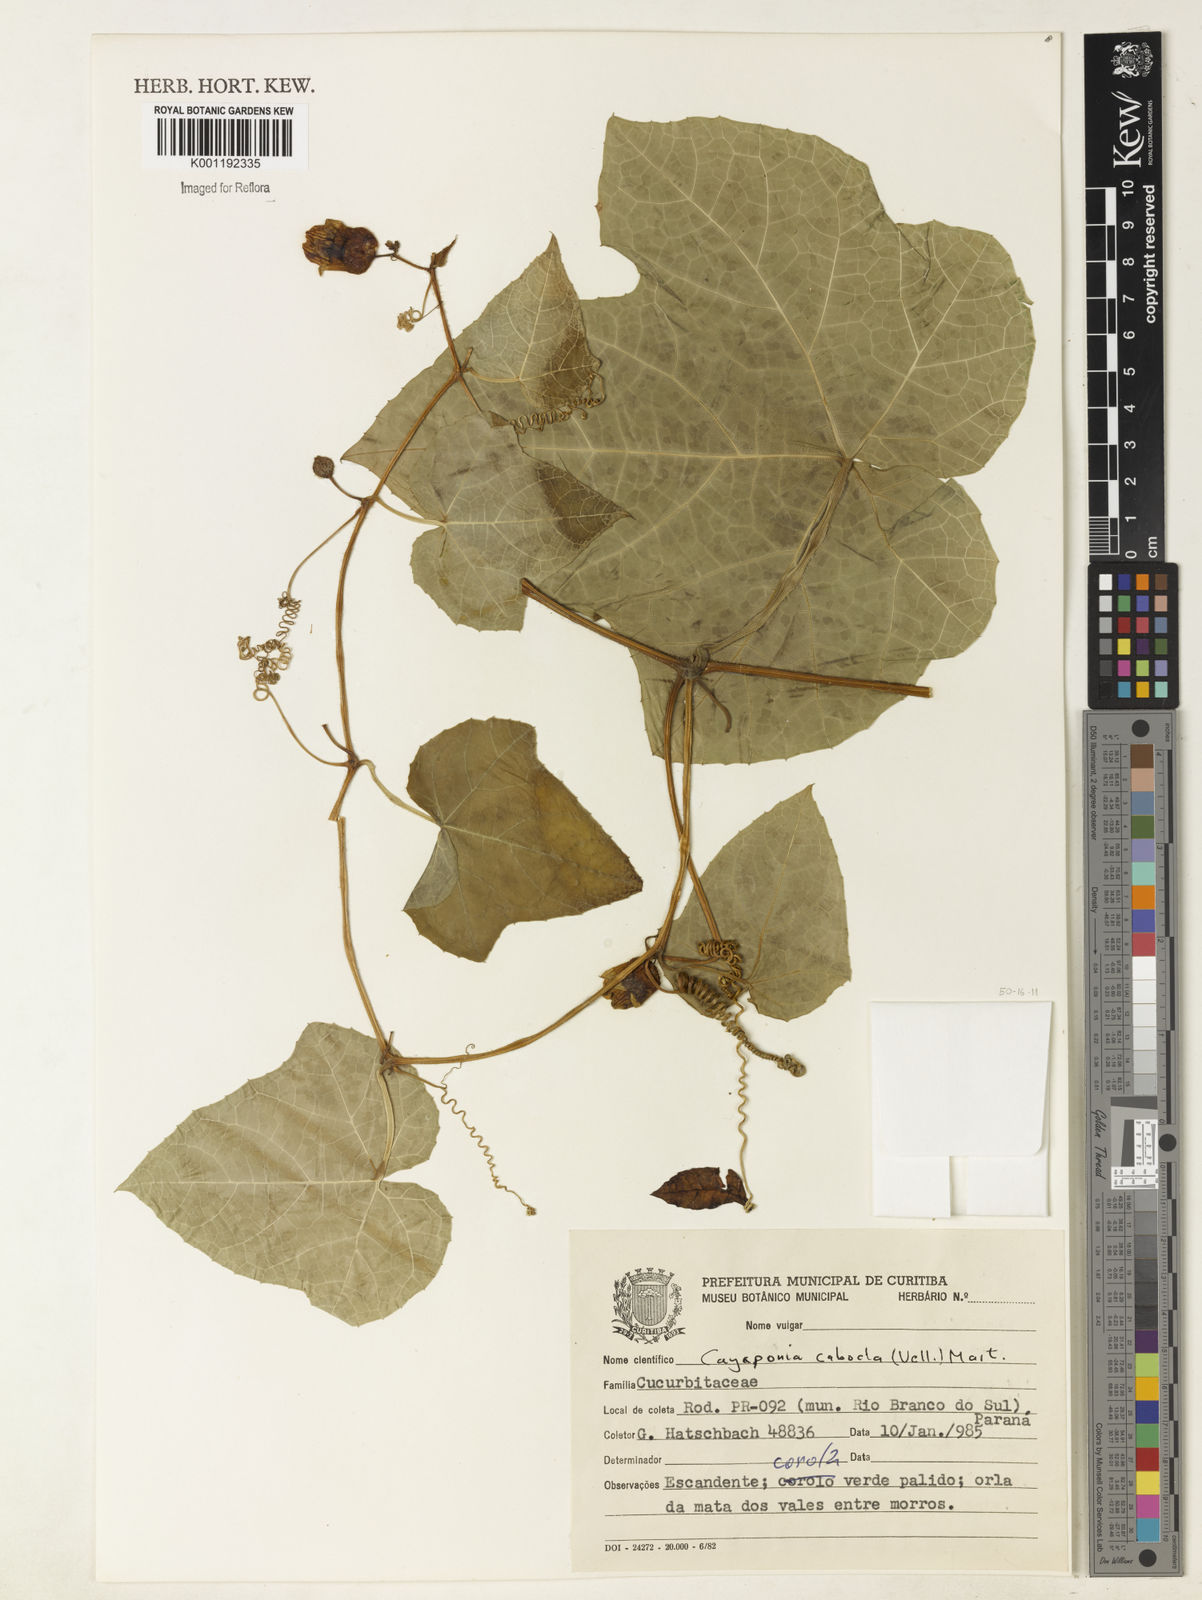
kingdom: Plantae
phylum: Tracheophyta
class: Magnoliopsida
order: Cucurbitales
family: Cucurbitaceae
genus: Cayaponia
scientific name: Cayaponia cabocla
